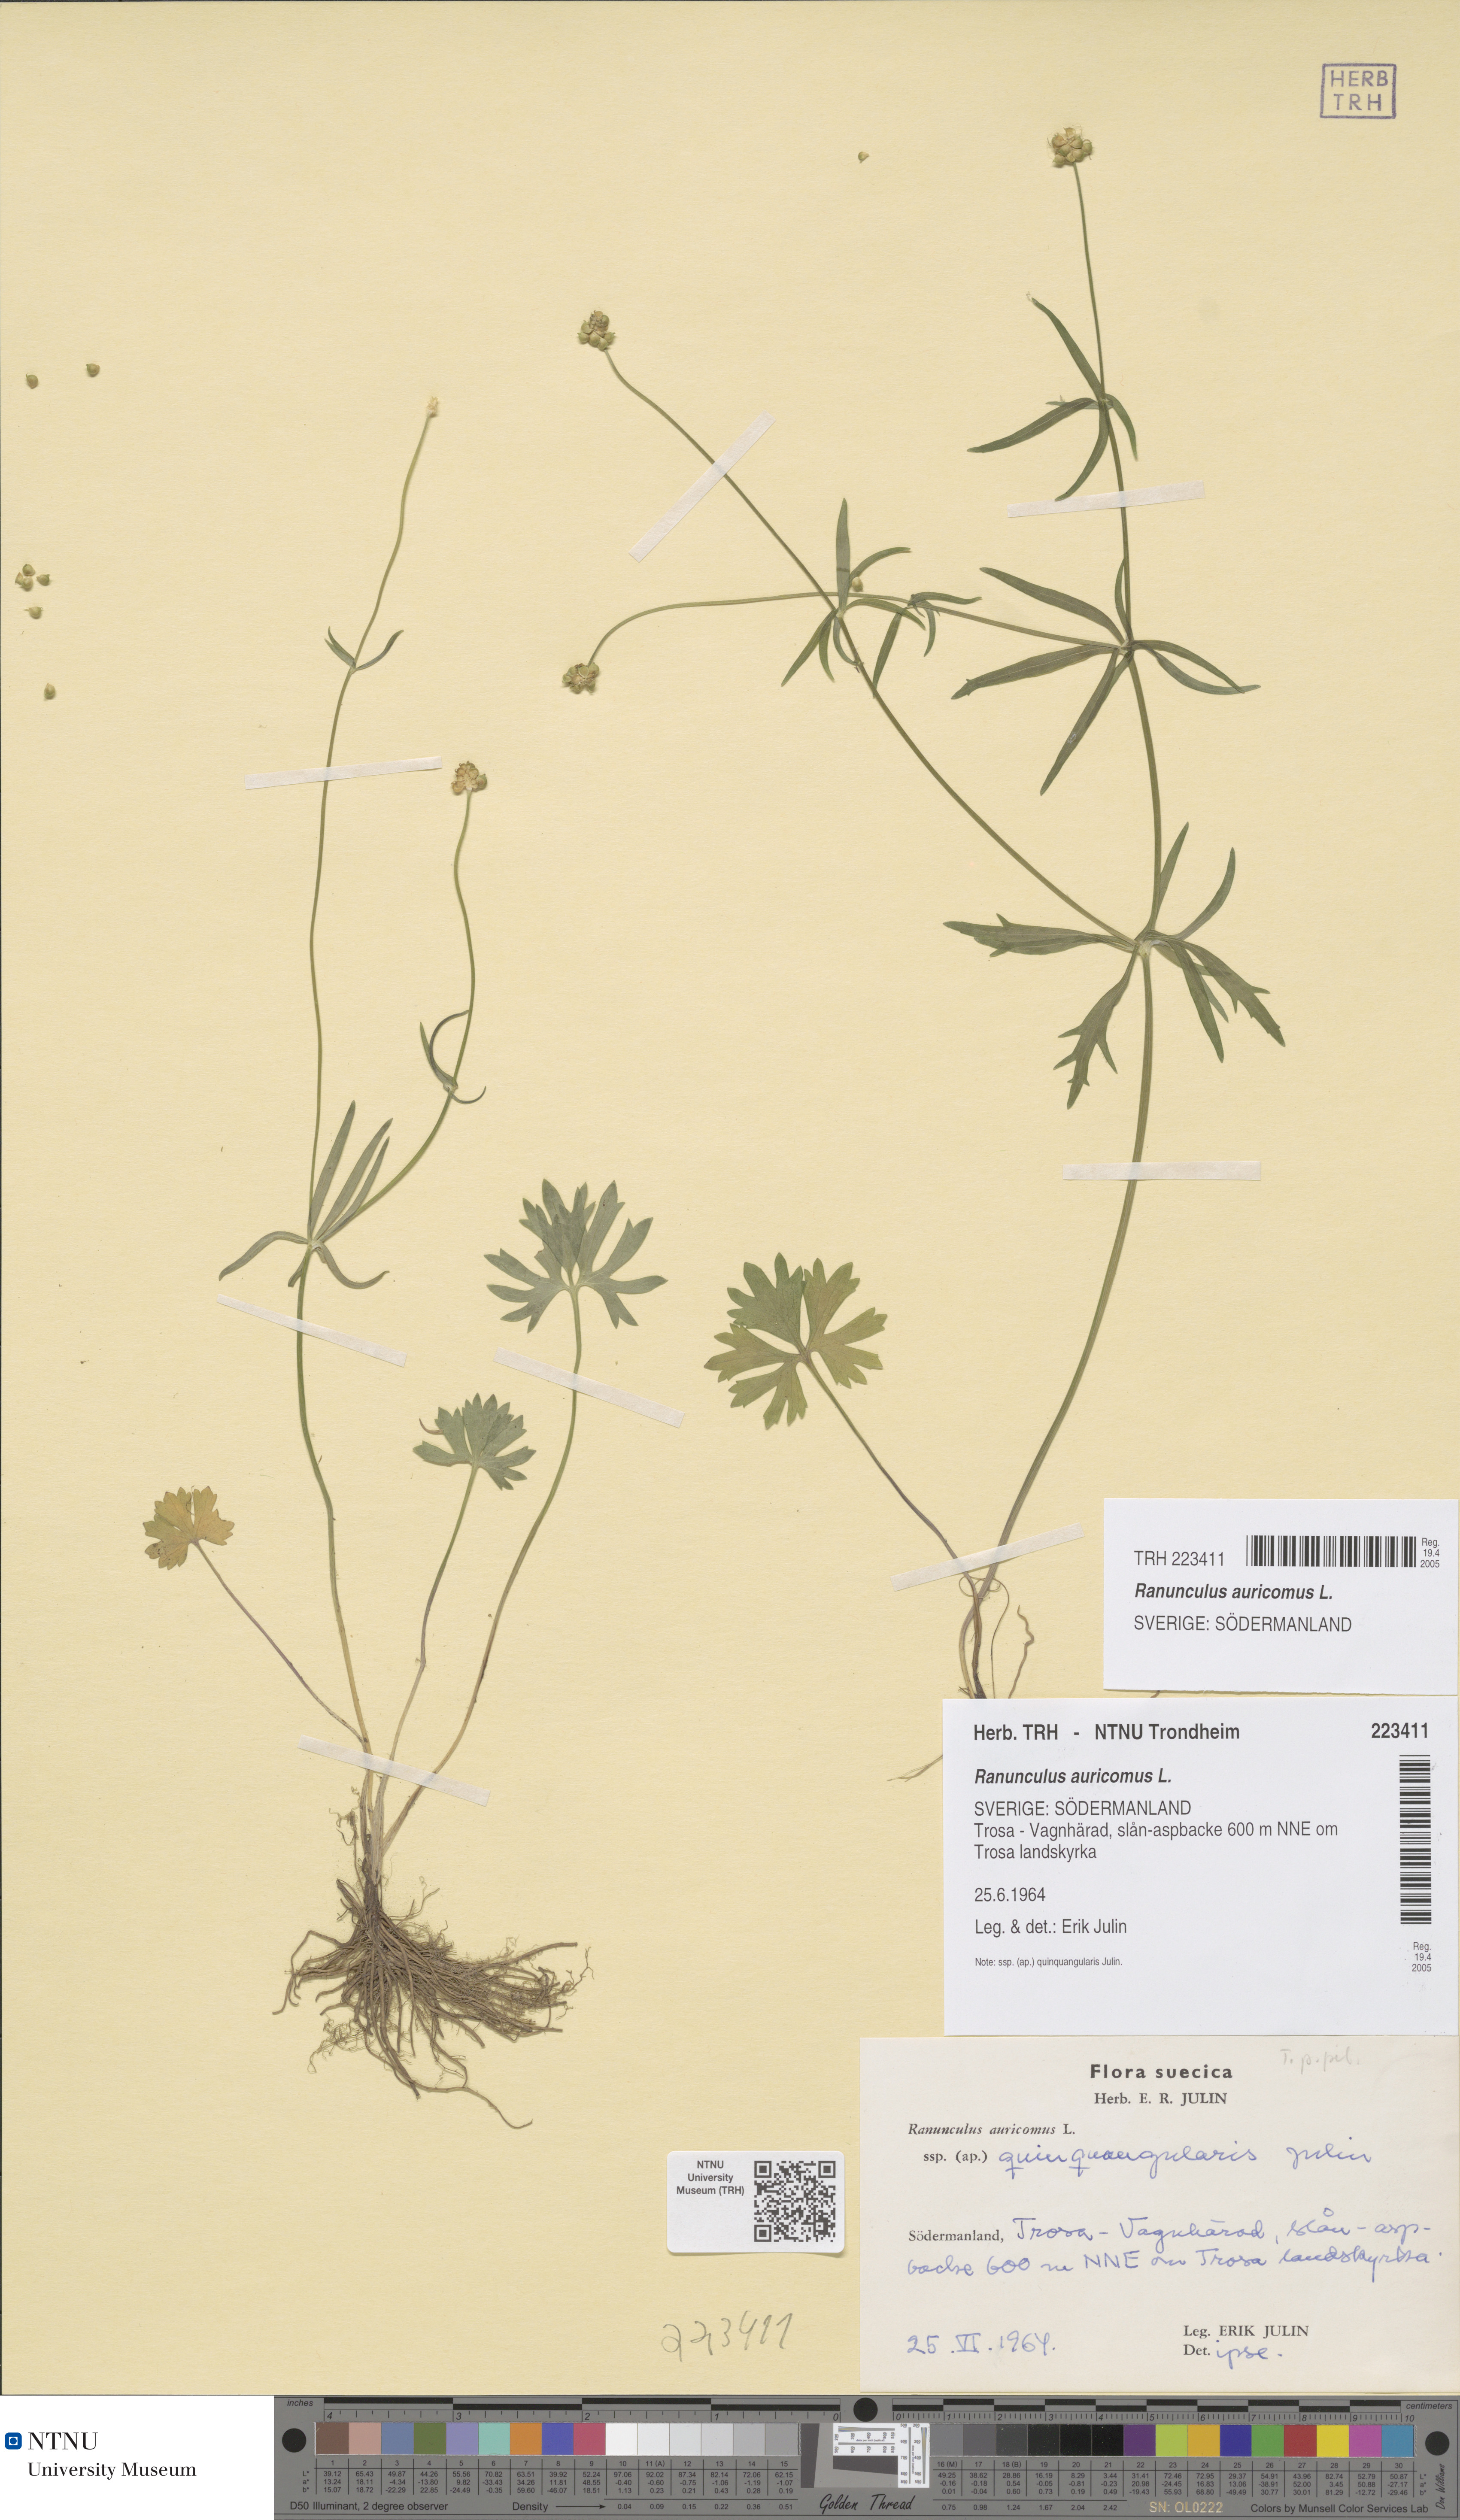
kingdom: Plantae
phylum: Tracheophyta
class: Magnoliopsida
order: Ranunculales
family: Ranunculaceae
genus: Ranunculus
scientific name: Ranunculus auricomus
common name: Goldilocks buttercup
